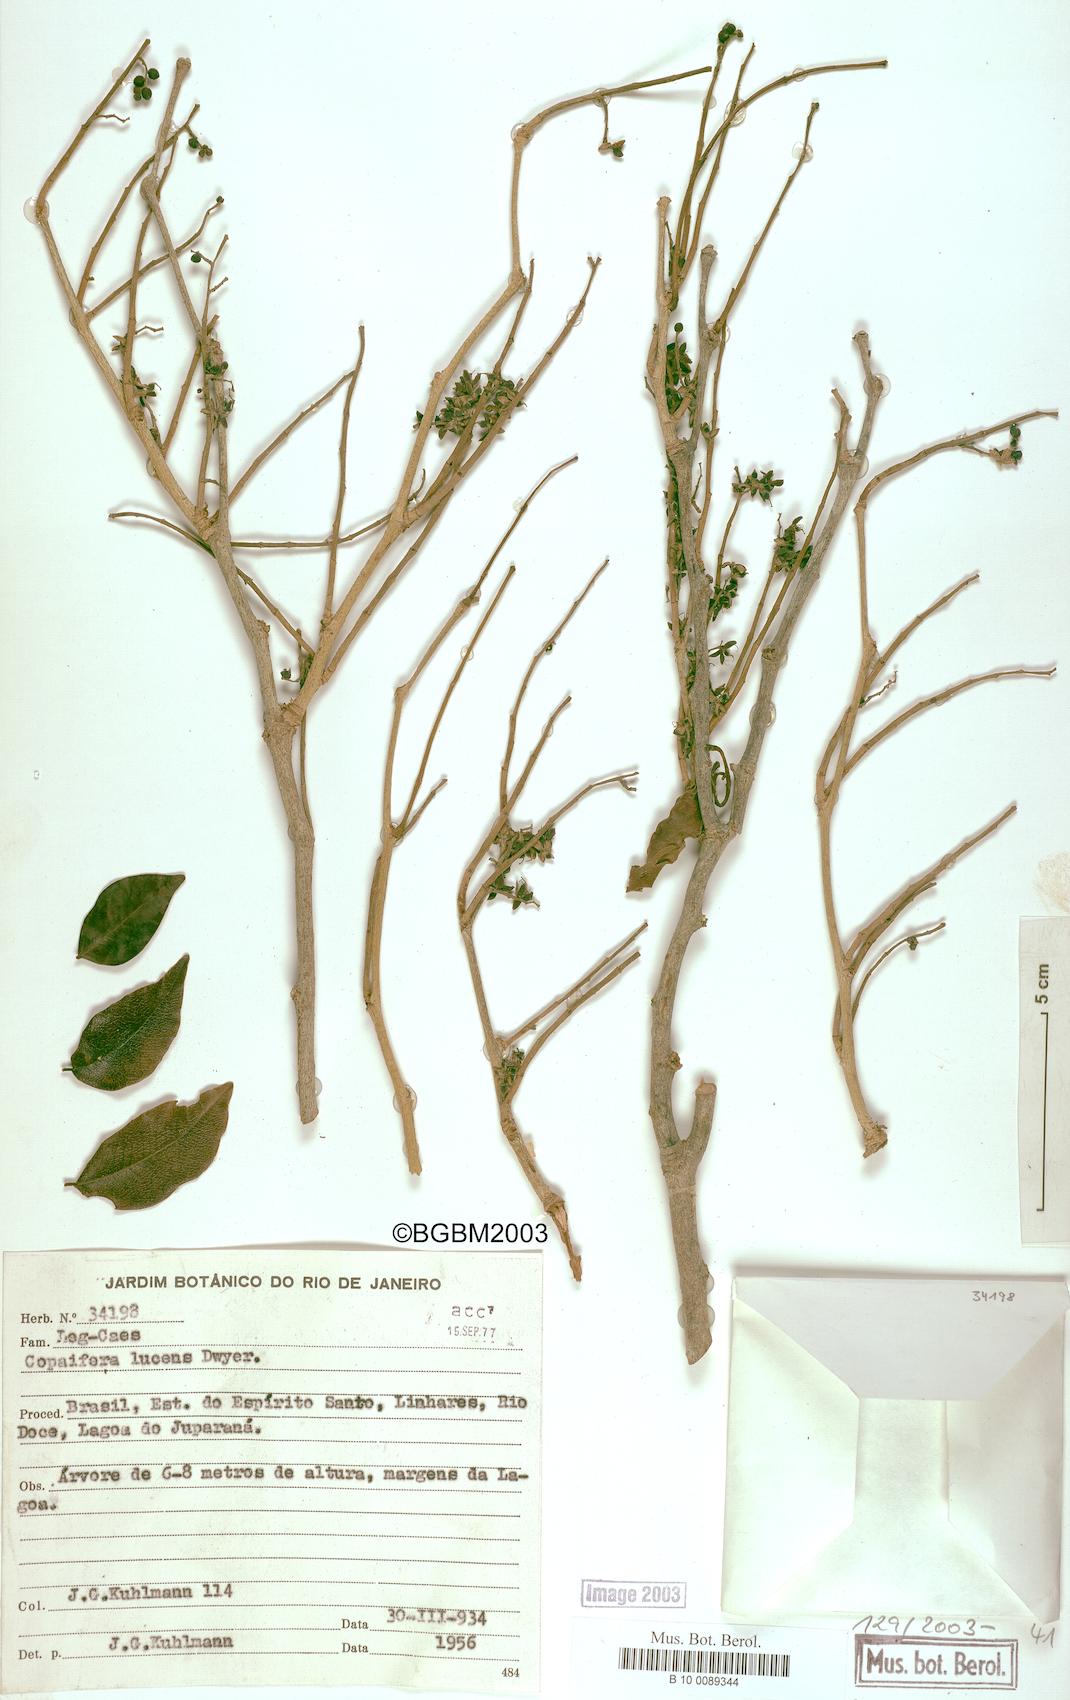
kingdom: Plantae
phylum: Tracheophyta
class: Magnoliopsida
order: Fabales
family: Fabaceae
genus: Copaifera
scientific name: Copaifera lucens
